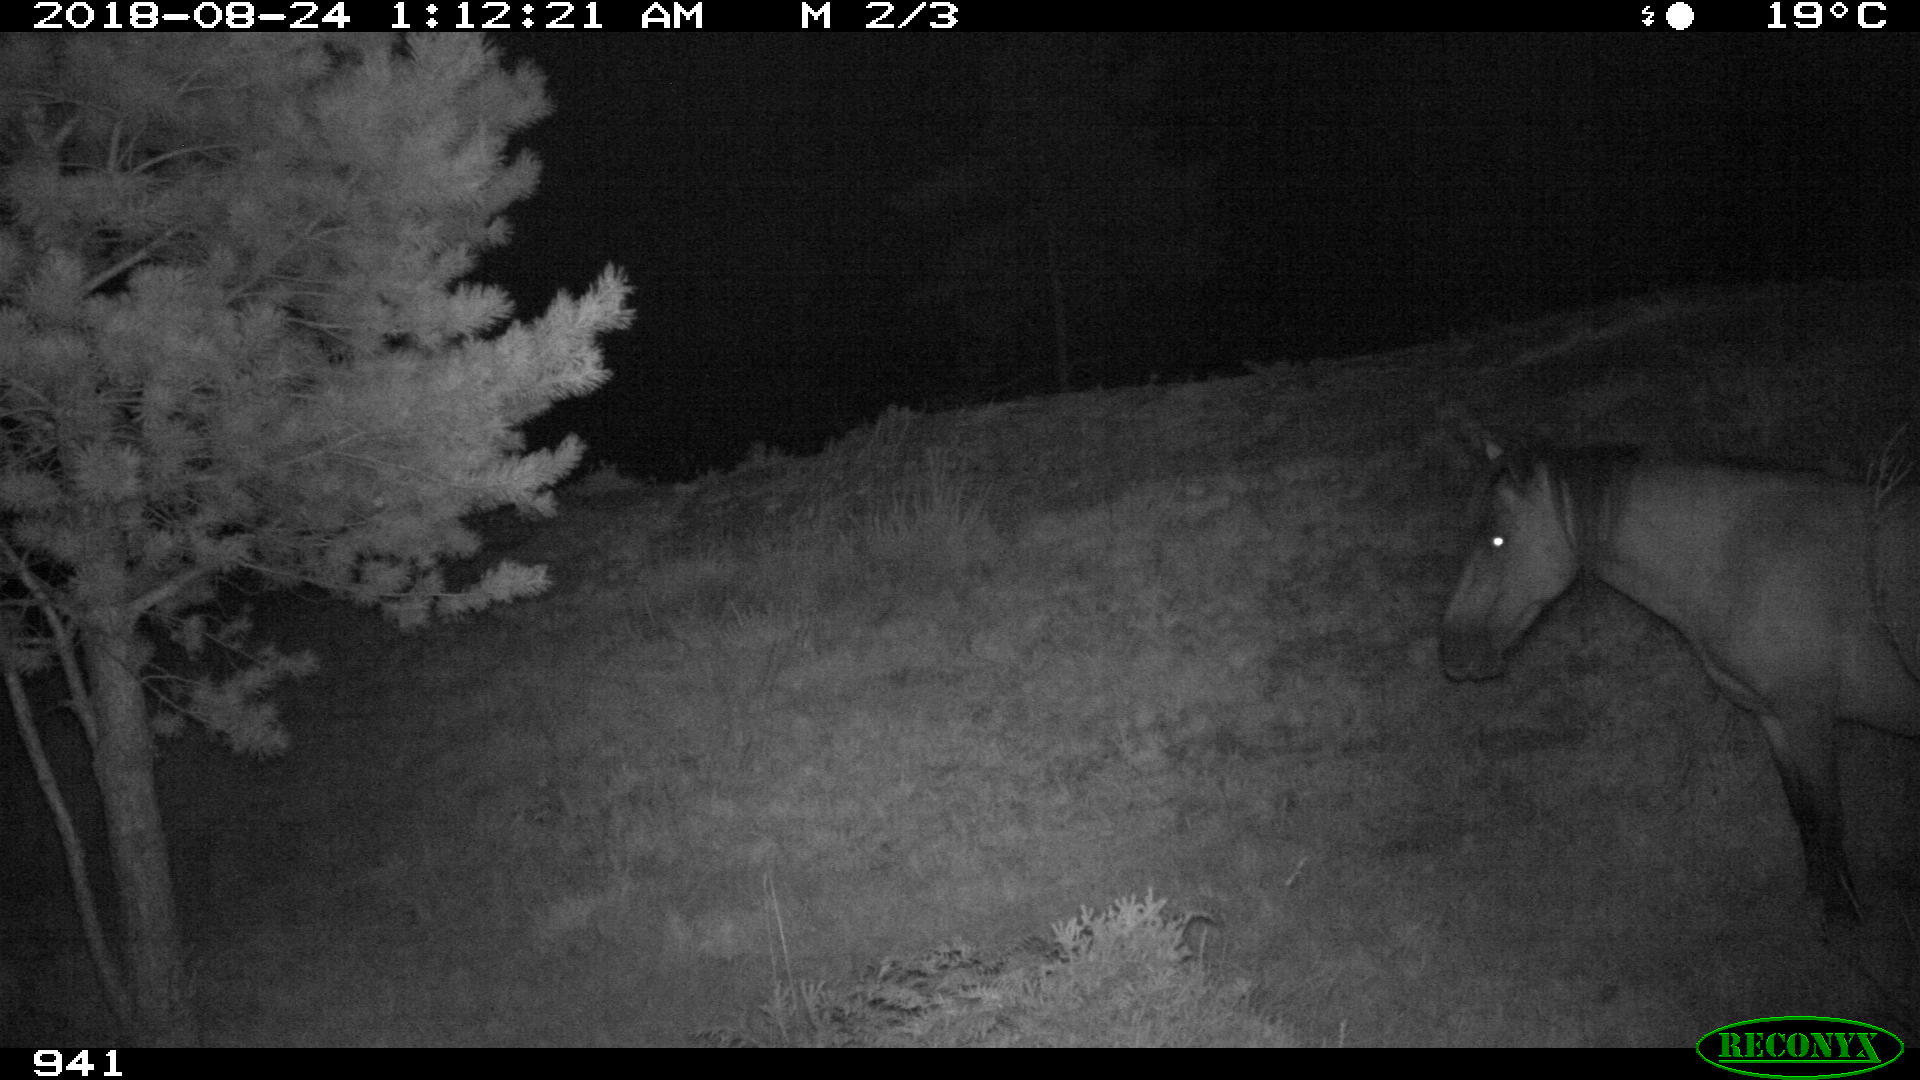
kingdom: Animalia
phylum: Chordata
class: Mammalia
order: Perissodactyla
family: Equidae
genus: Equus
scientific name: Equus caballus
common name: Horse
